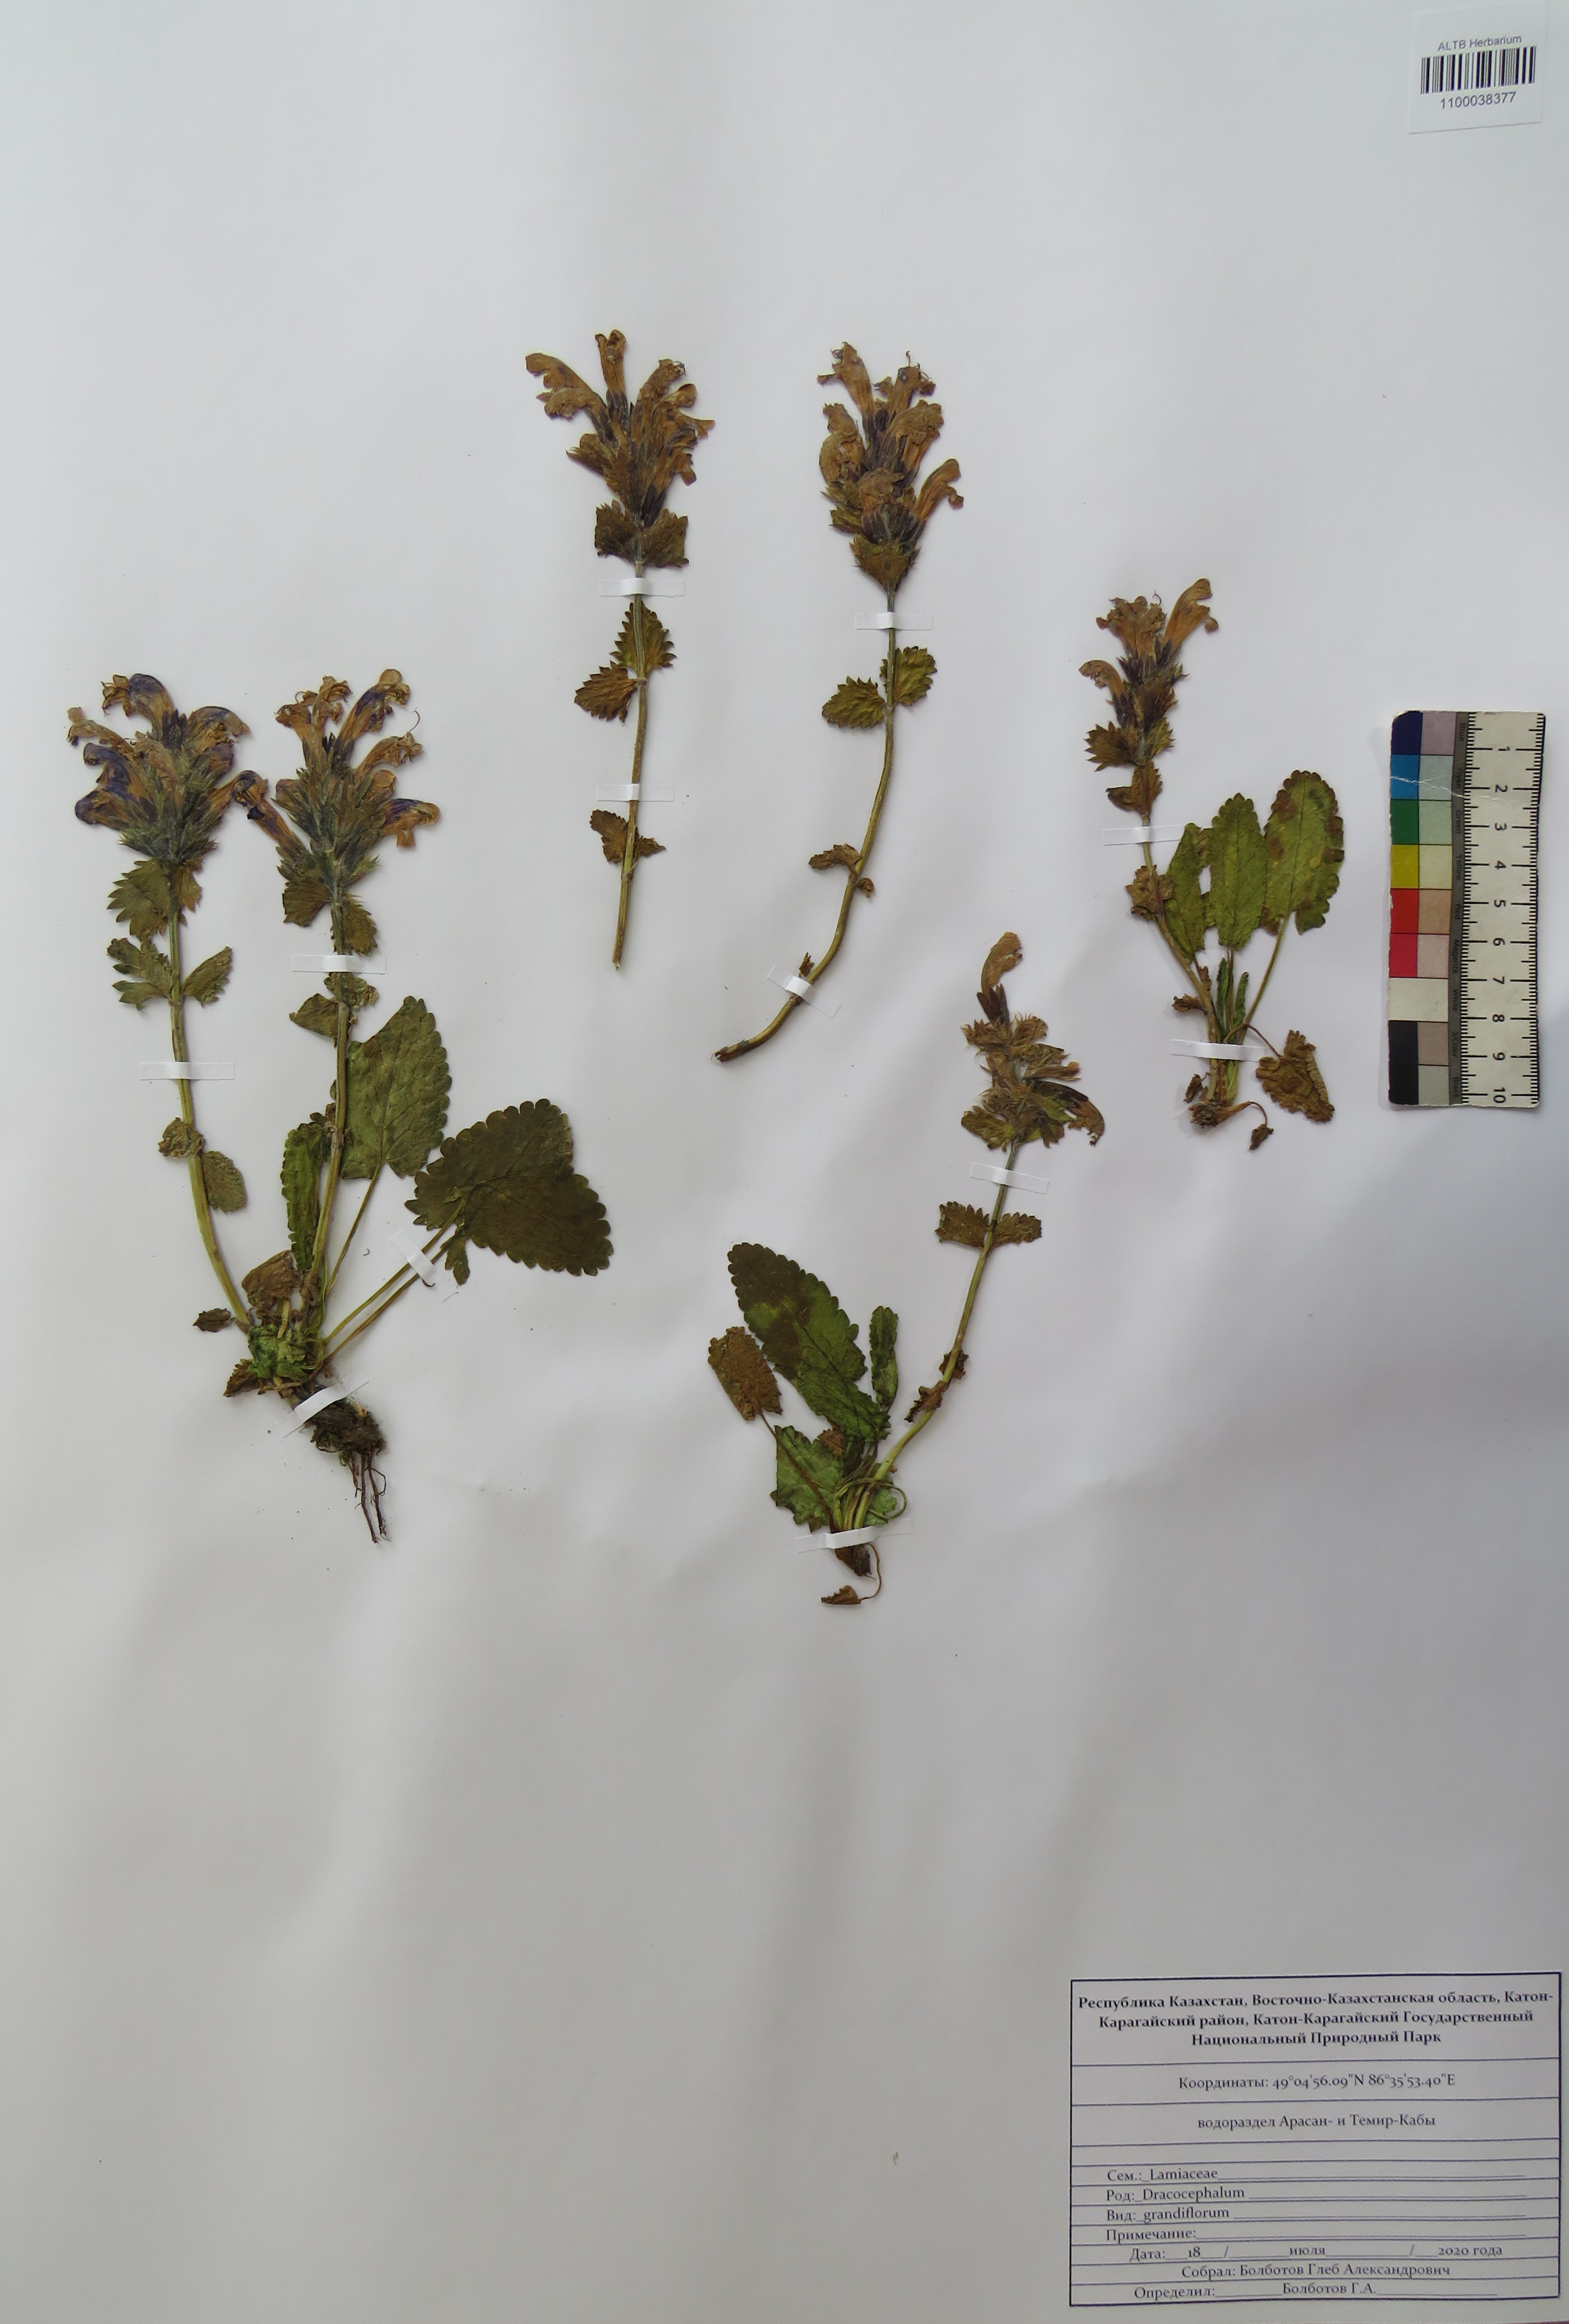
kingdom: Plantae
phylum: Tracheophyta
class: Magnoliopsida
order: Lamiales
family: Lamiaceae
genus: Dracocephalum
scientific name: Dracocephalum grandiflorum
